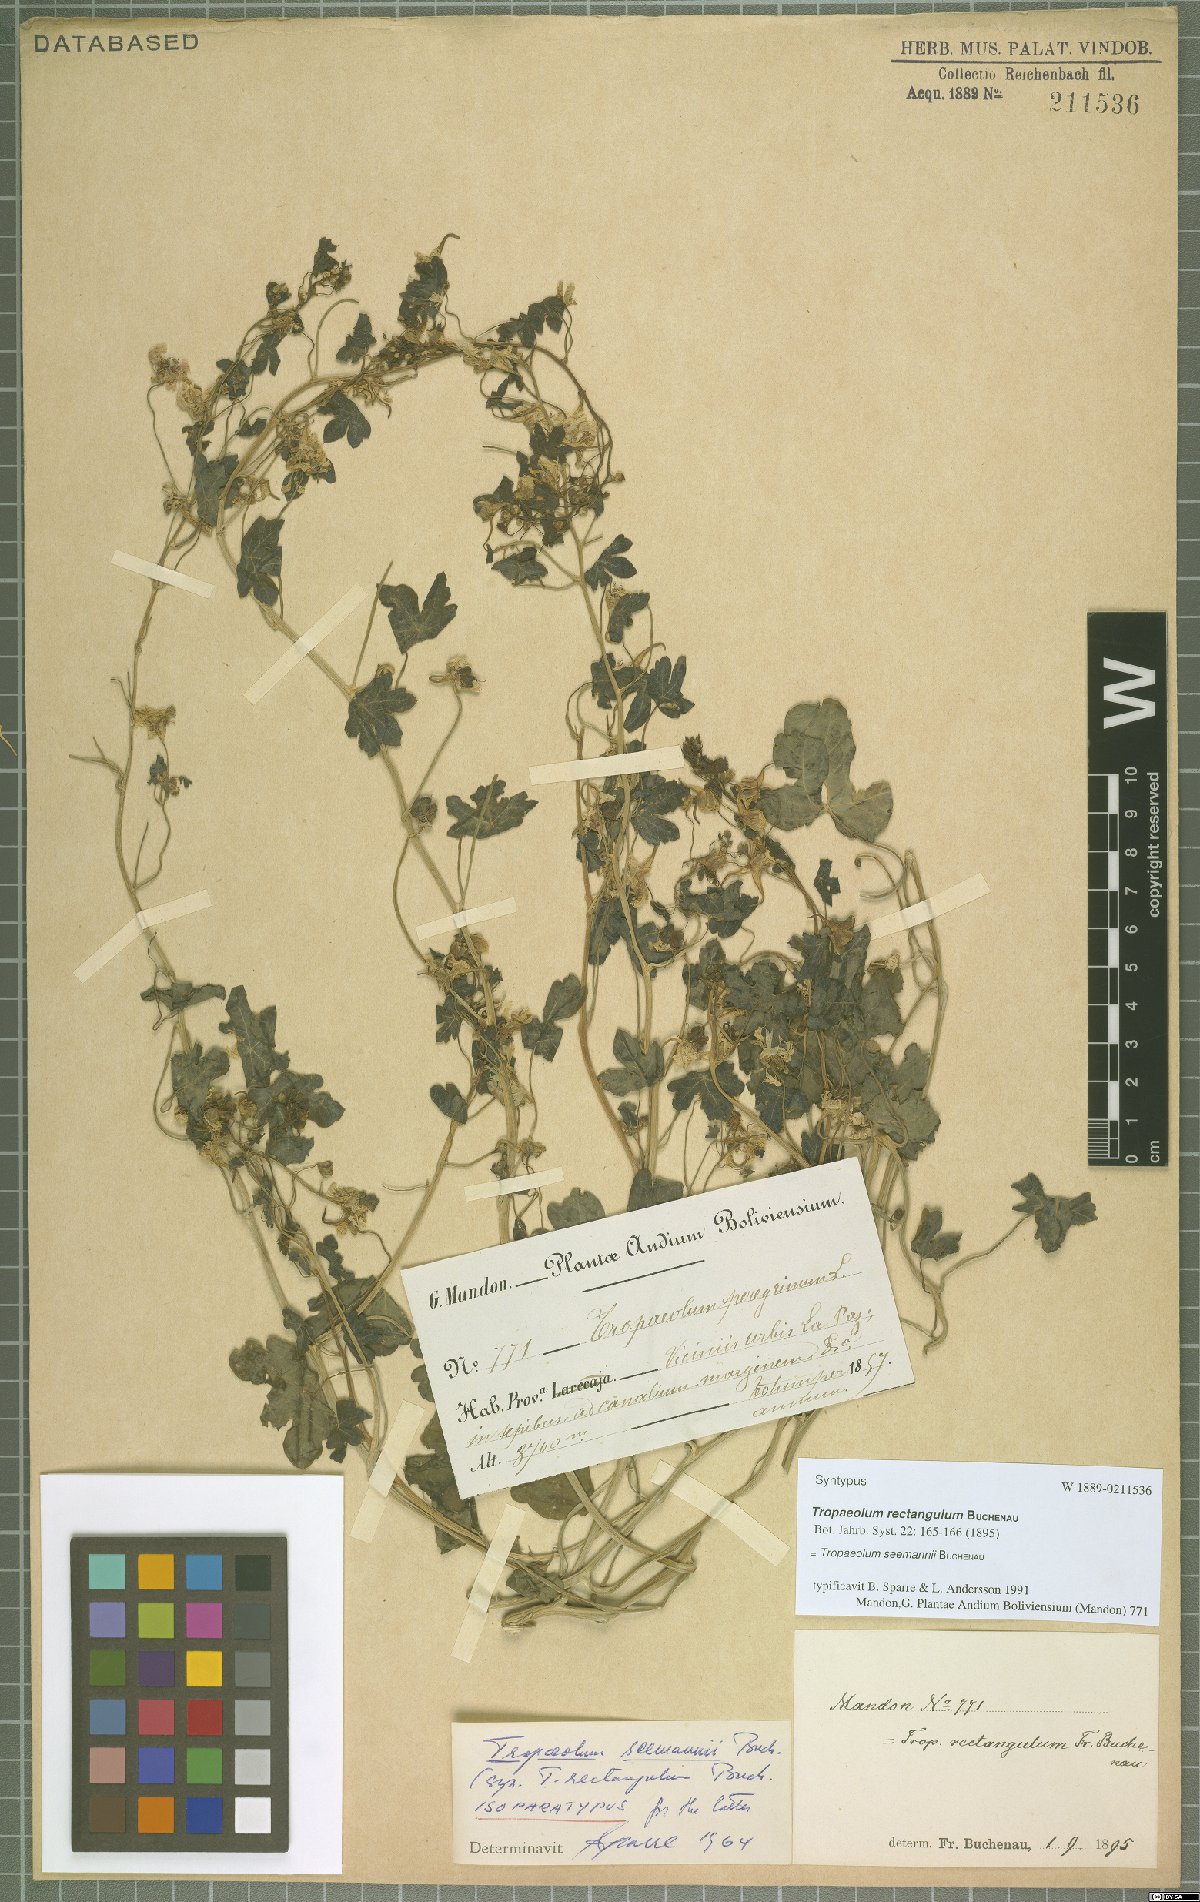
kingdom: Plantae
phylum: Tracheophyta
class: Magnoliopsida
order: Brassicales
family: Tropaeolaceae
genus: Tropaeolum
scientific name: Tropaeolum seemannii
